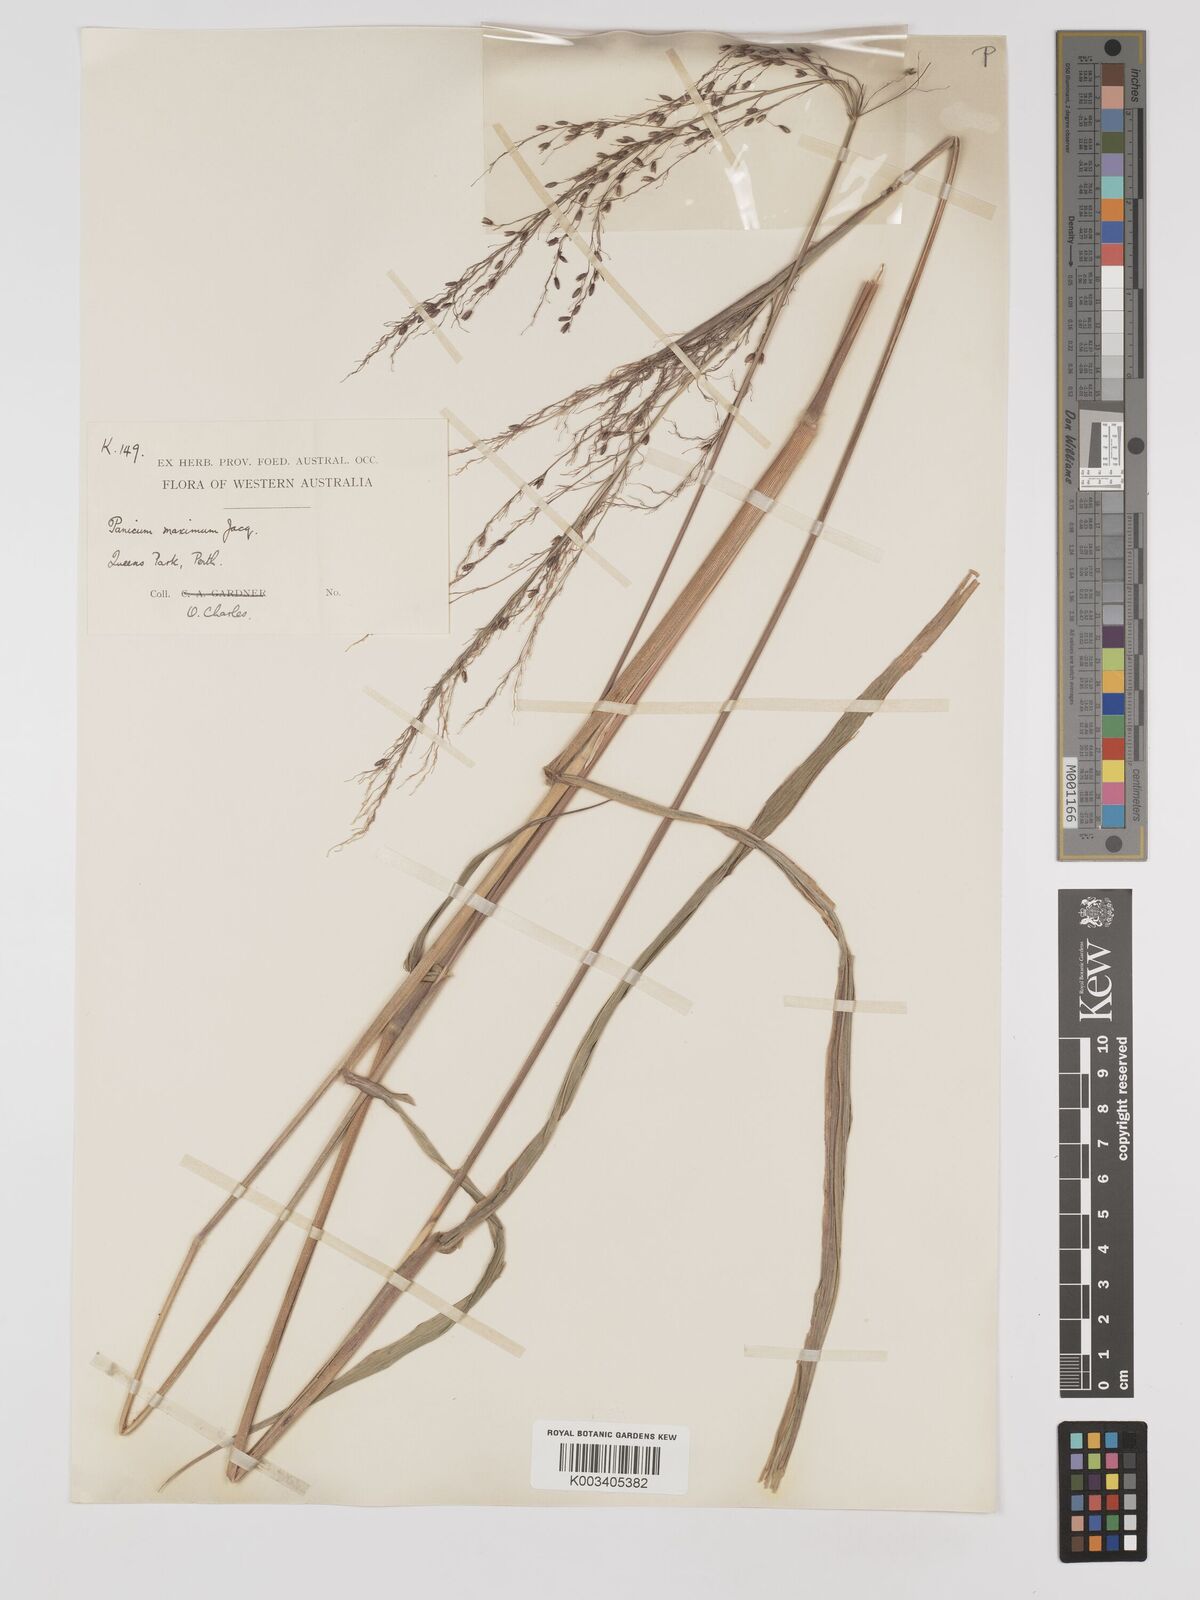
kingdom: Plantae
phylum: Tracheophyta
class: Liliopsida
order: Poales
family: Poaceae
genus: Megathyrsus
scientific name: Megathyrsus maximus
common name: Guineagrass
